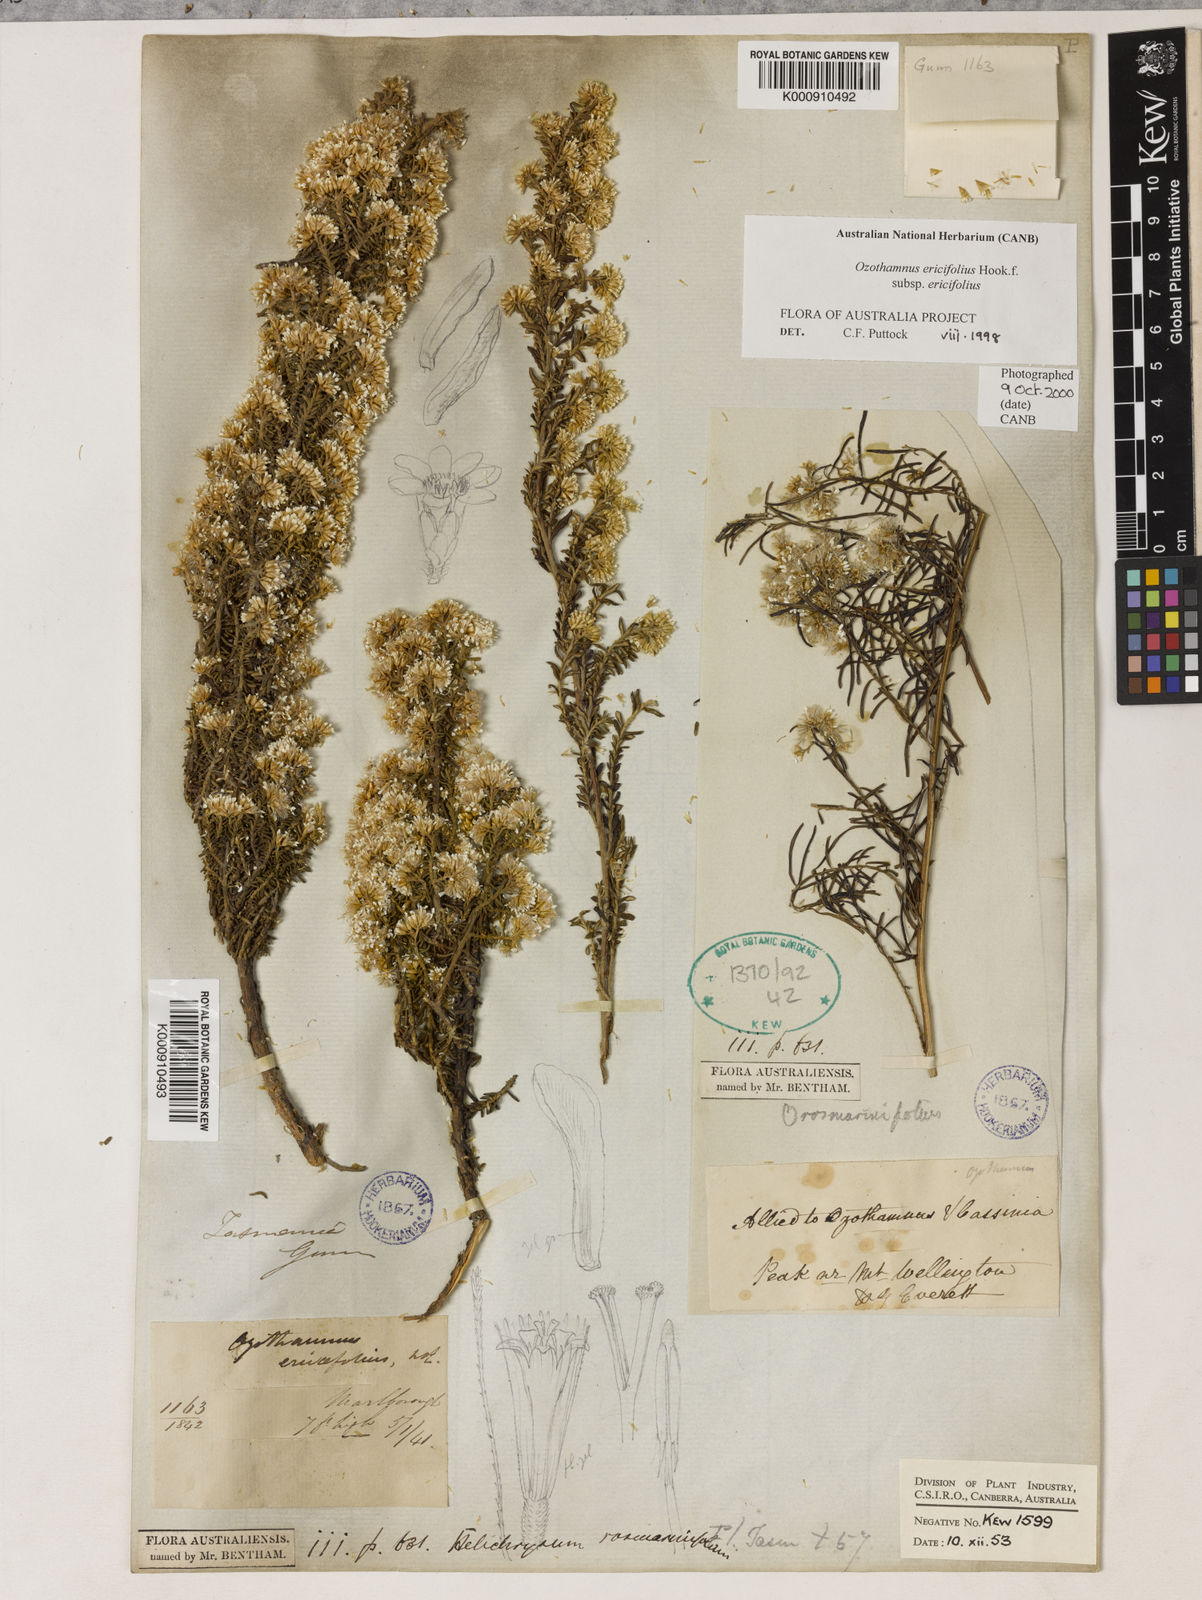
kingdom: Plantae
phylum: Tracheophyta
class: Magnoliopsida
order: Asterales
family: Asteraceae
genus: Ozothamnus
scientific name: Ozothamnus ericifolius
